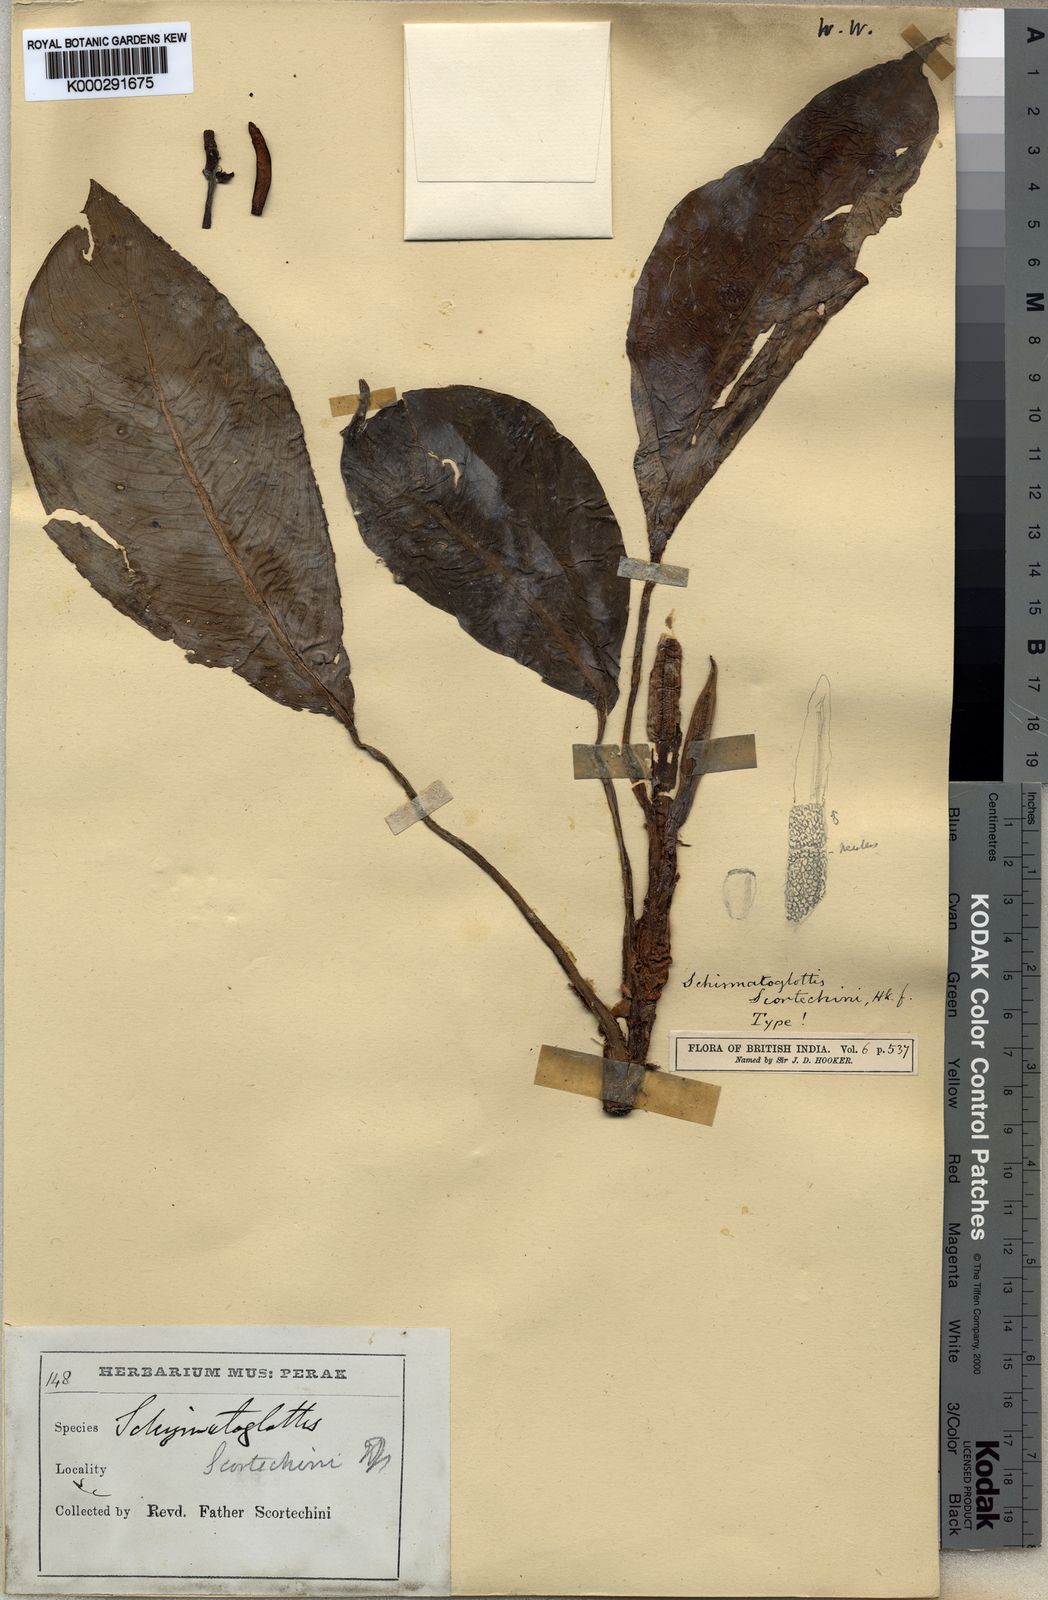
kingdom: Plantae
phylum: Tracheophyta
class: Liliopsida
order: Alismatales
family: Araceae
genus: Schismatoglottis
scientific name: Schismatoglottis scortechinii
